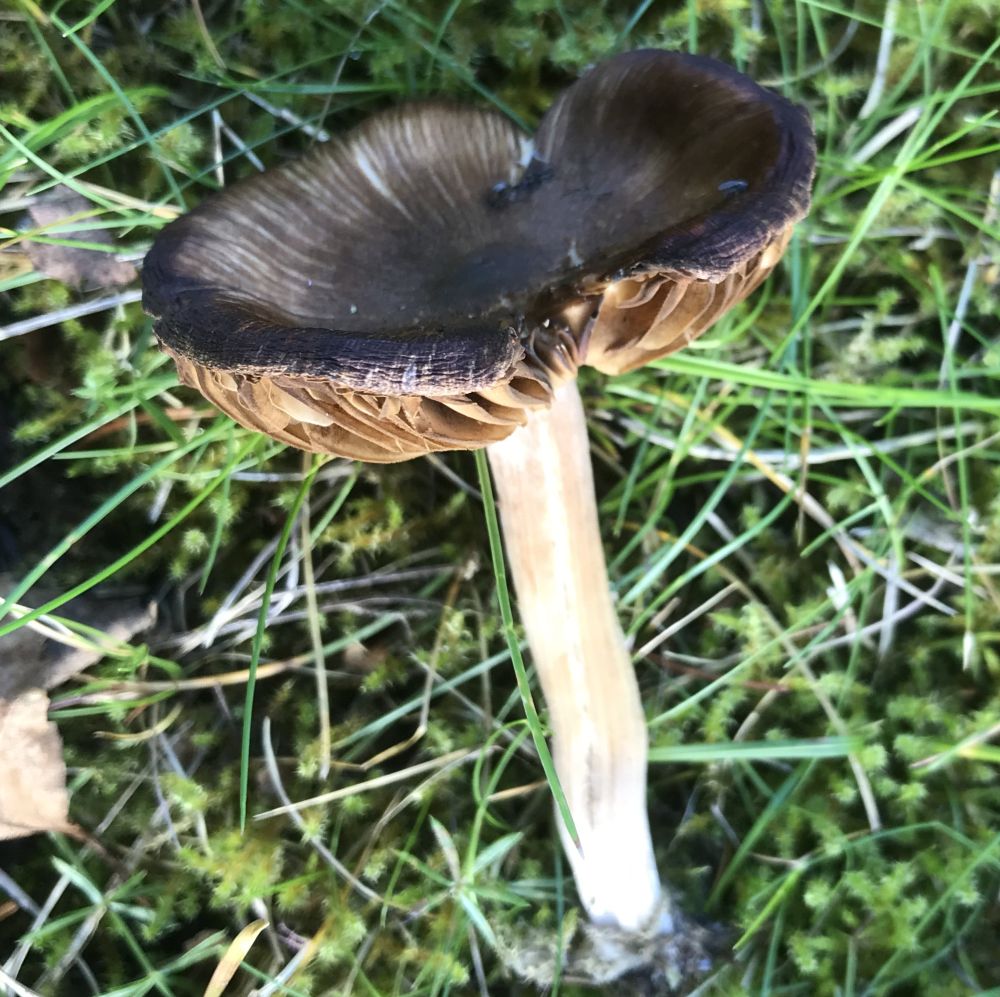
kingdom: Fungi
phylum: Basidiomycota
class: Agaricomycetes
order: Agaricales
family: Tricholomataceae
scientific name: Tricholomataceae
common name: ridderhatfamilien
